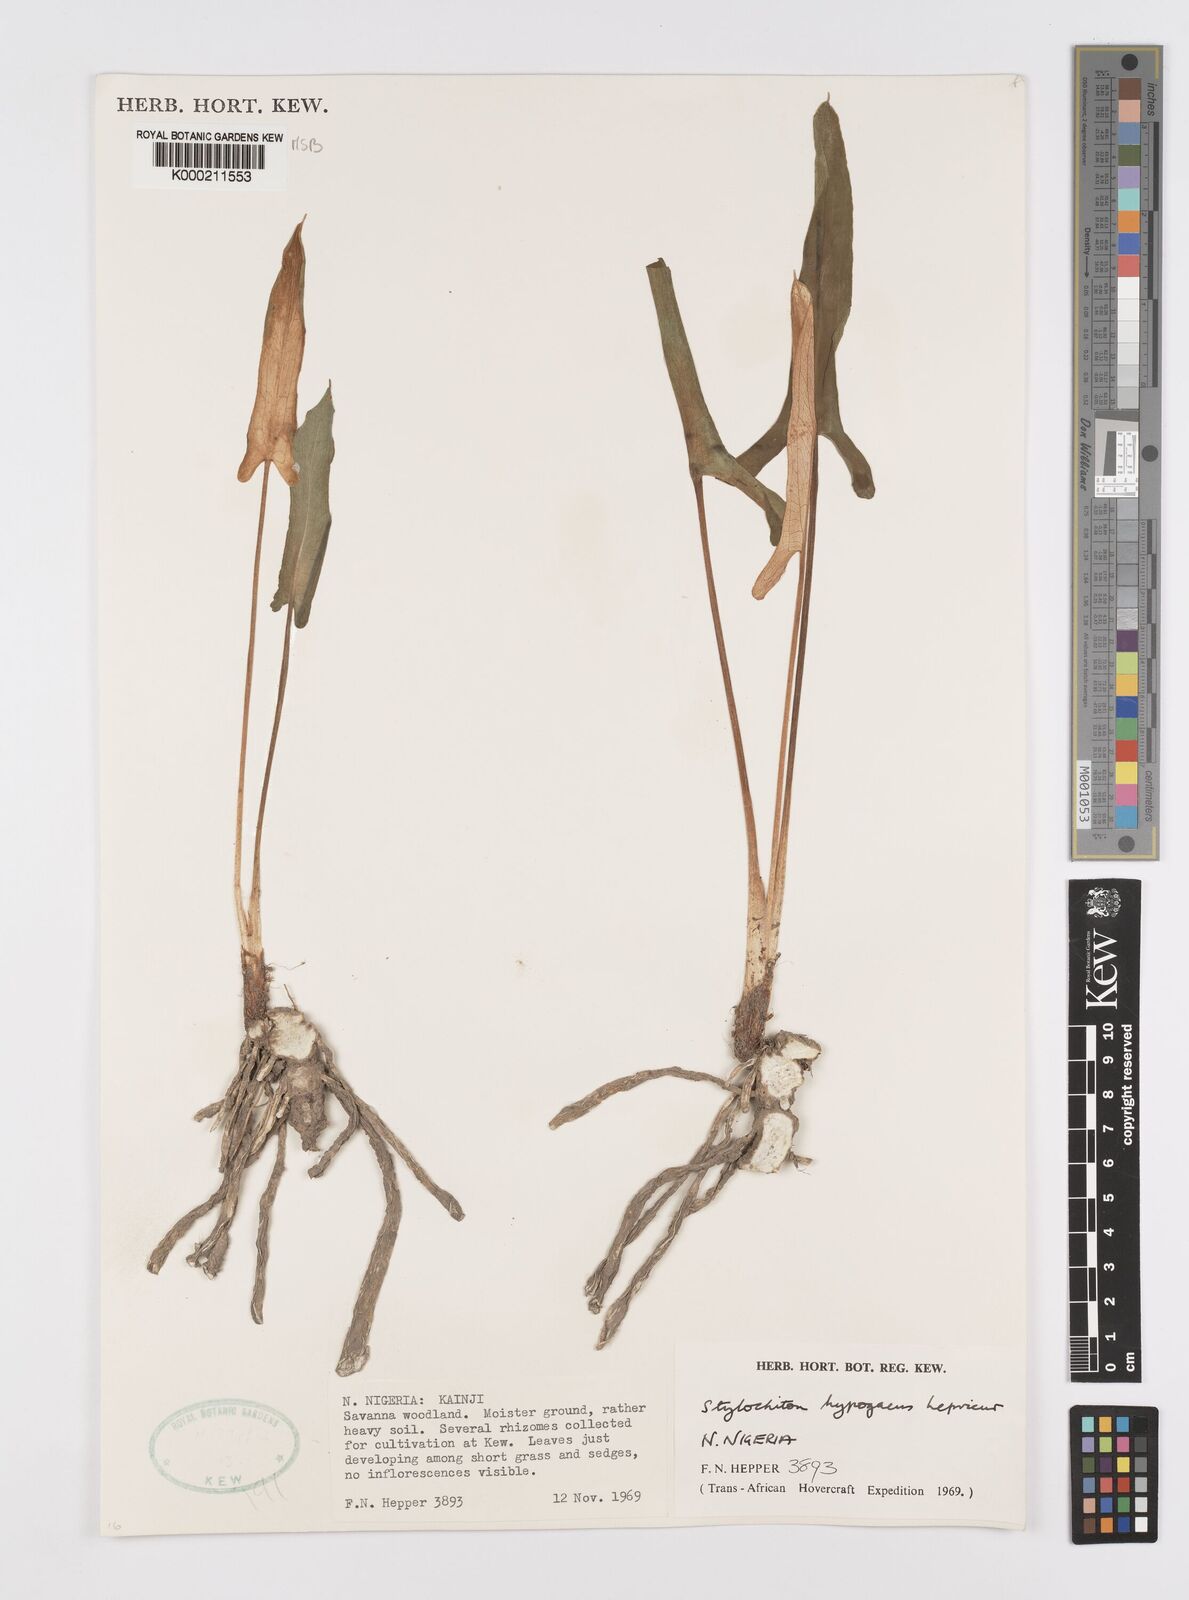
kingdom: Plantae
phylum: Tracheophyta
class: Liliopsida
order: Alismatales
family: Araceae
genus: Stylochaeton
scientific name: Stylochaeton
